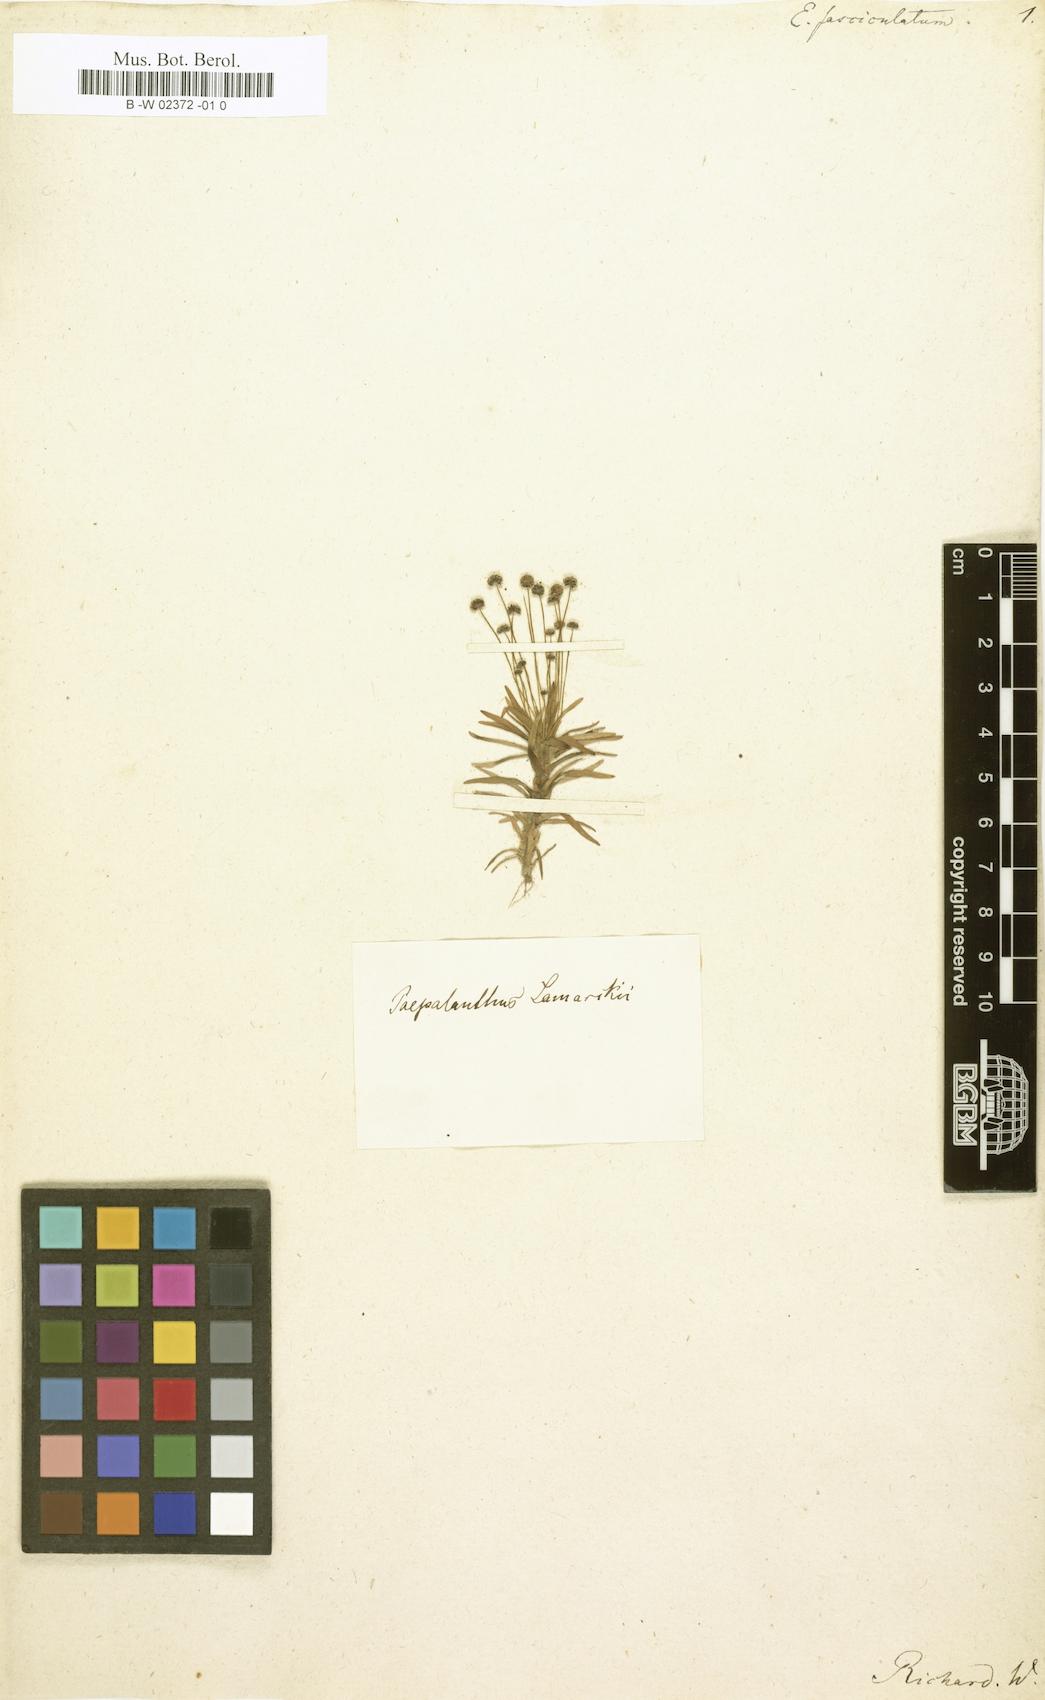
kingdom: Plantae
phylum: Tracheophyta
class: Liliopsida
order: Poales
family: Eriocaulaceae
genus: Paepalanthus
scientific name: Paepalanthus
